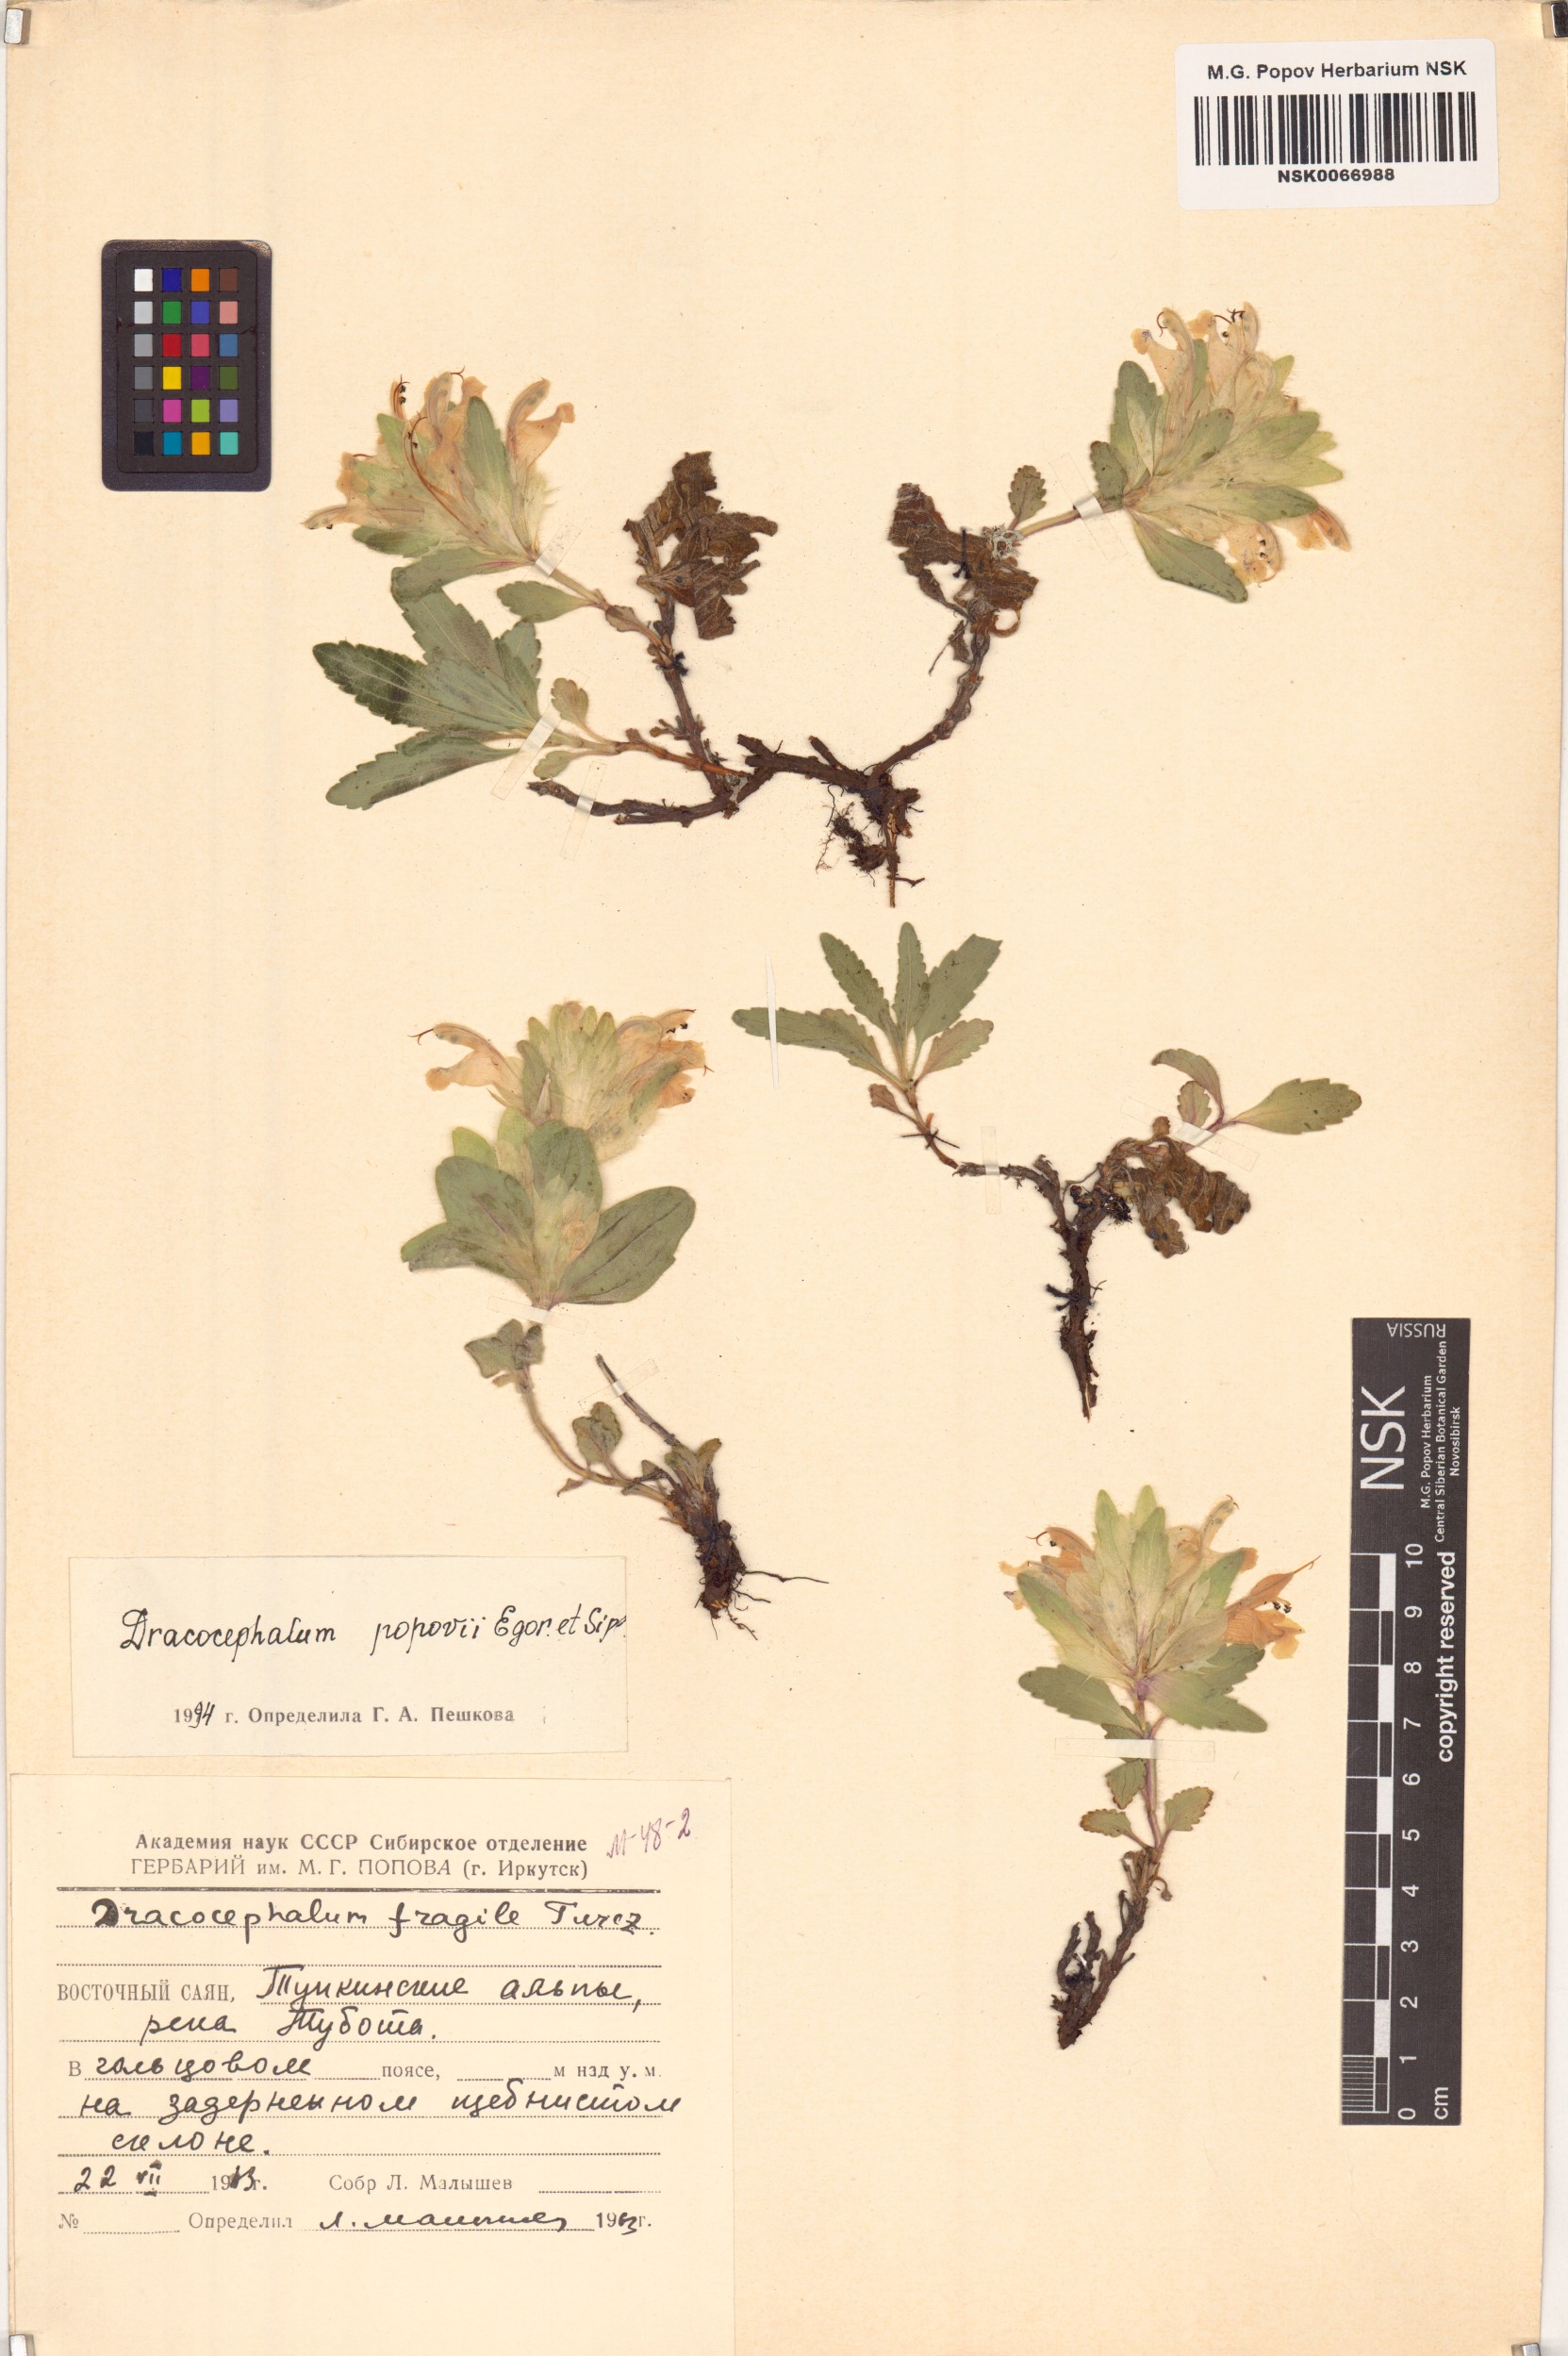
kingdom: Plantae
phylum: Tracheophyta
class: Magnoliopsida
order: Lamiales
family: Lamiaceae
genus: Dracocephalum
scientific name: Dracocephalum popovii
